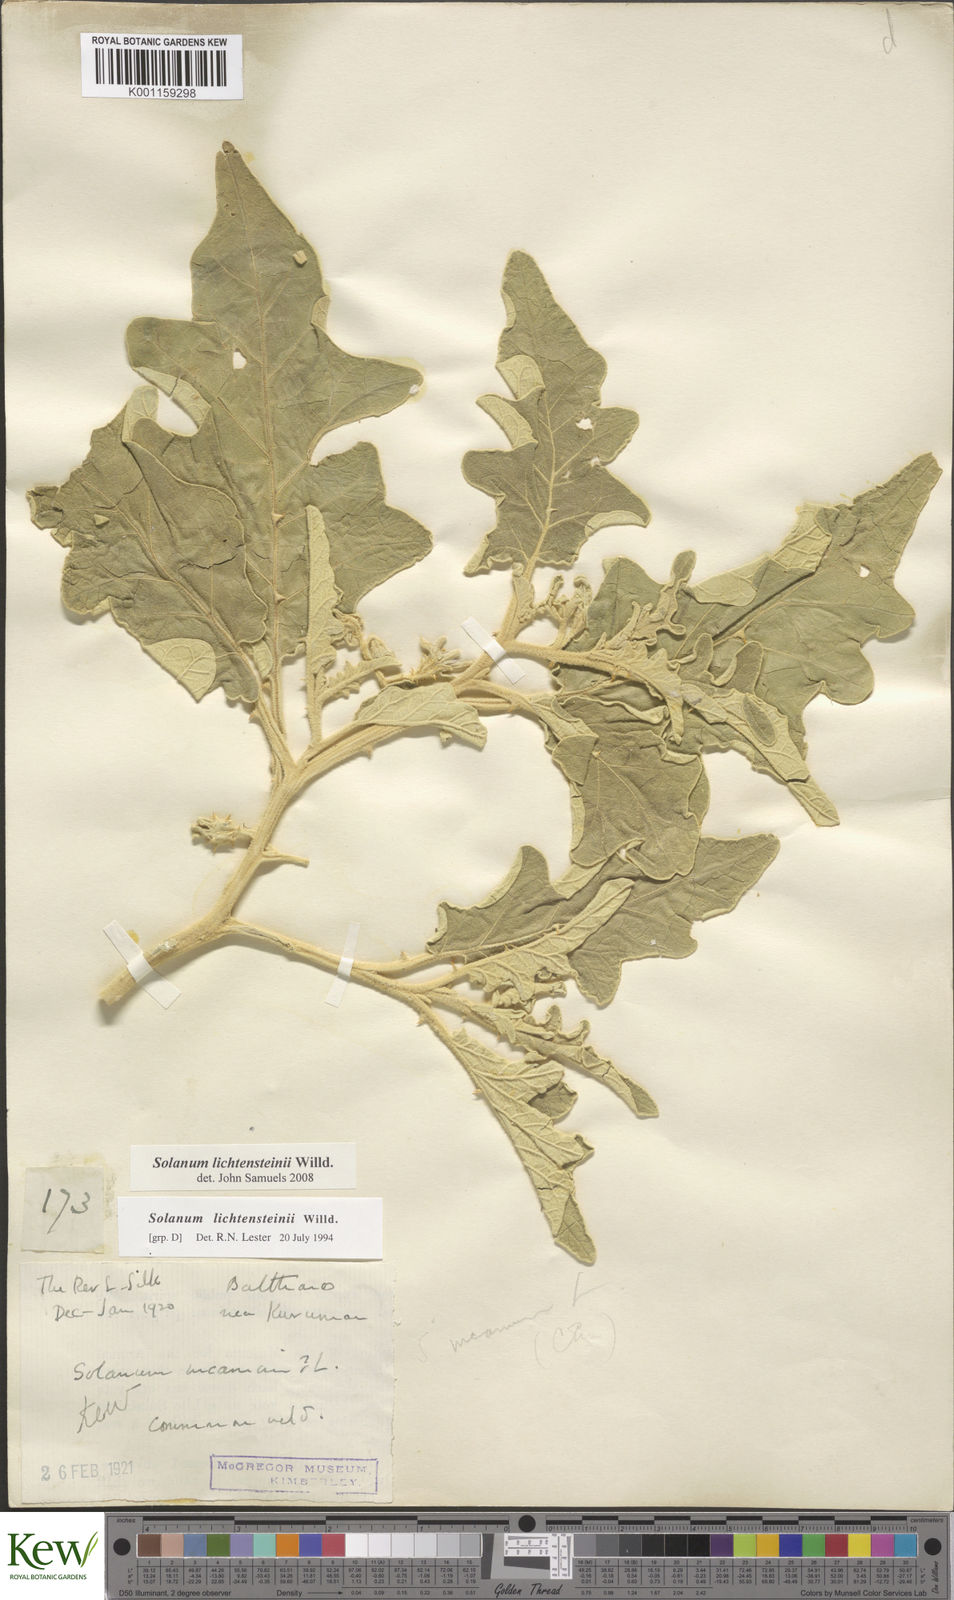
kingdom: Plantae
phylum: Tracheophyta
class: Magnoliopsida
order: Solanales
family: Solanaceae
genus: Solanum
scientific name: Solanum lichtensteinii
